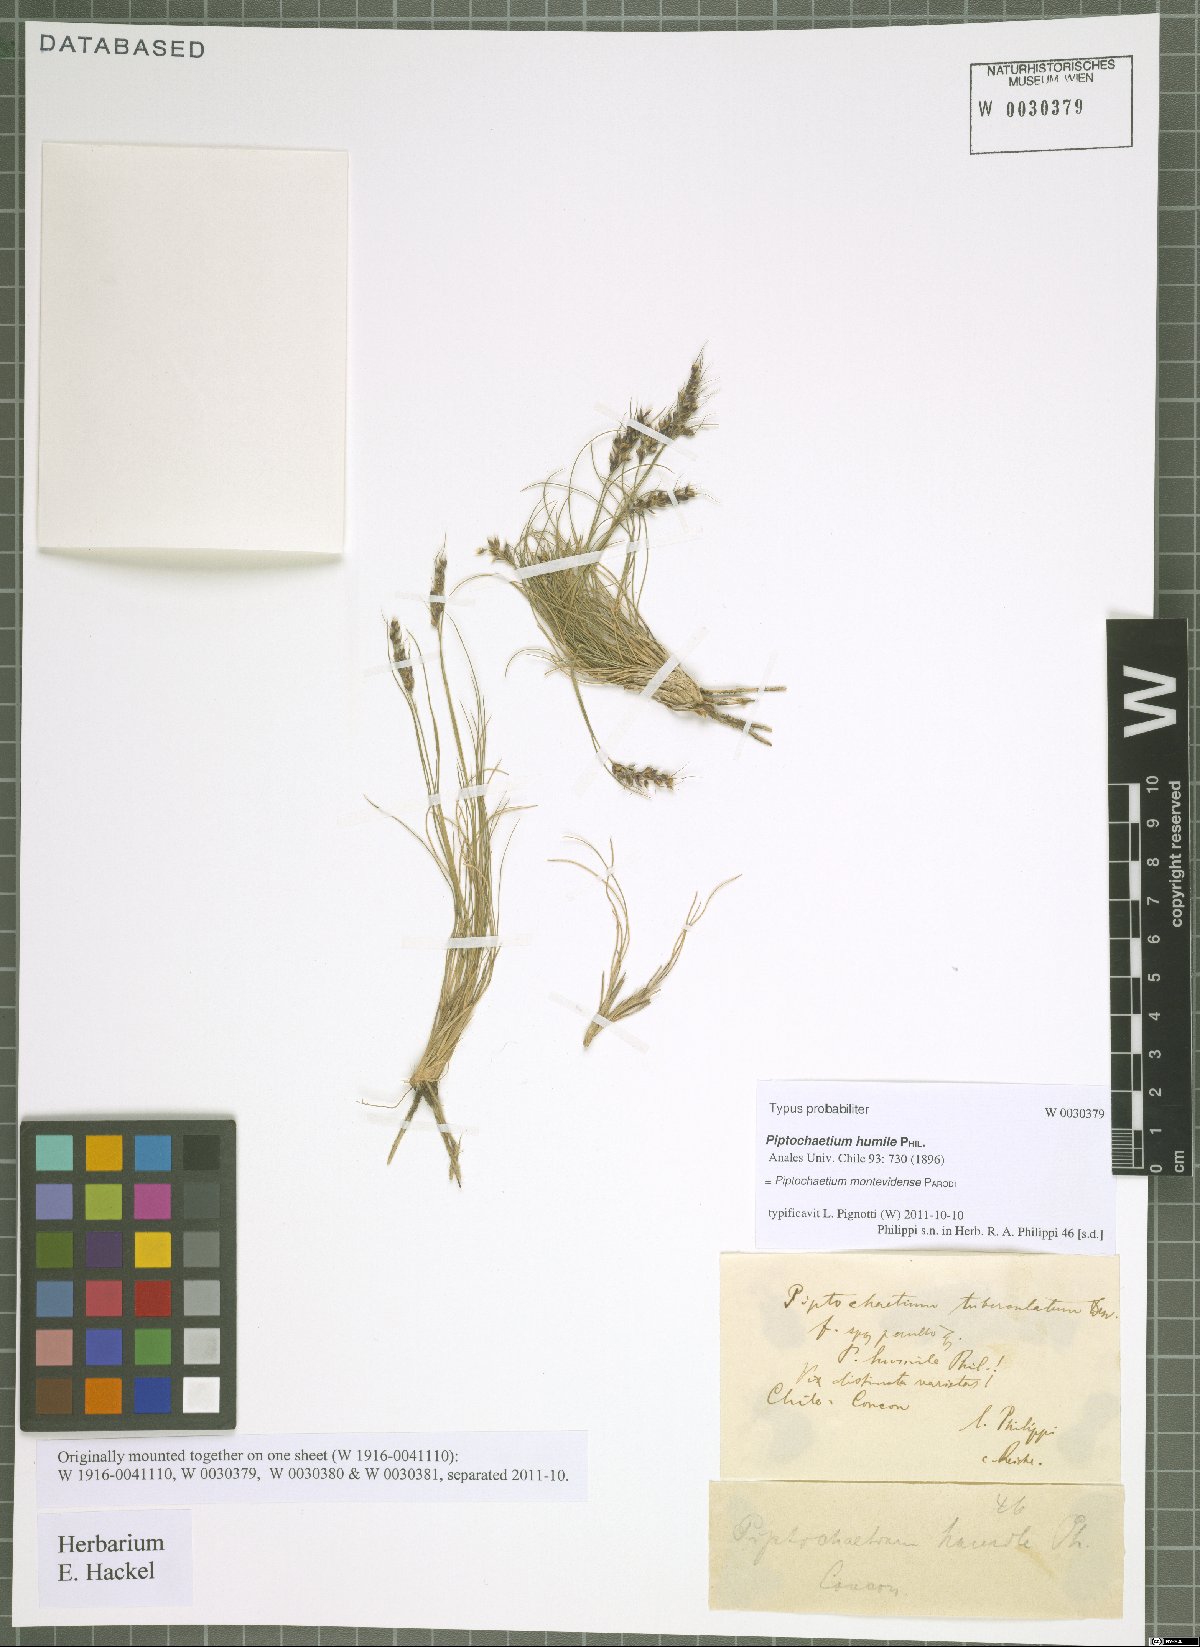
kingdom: Plantae
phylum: Tracheophyta
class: Liliopsida
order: Poales
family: Poaceae
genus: Piptochaetium
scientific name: Piptochaetium montevidense
